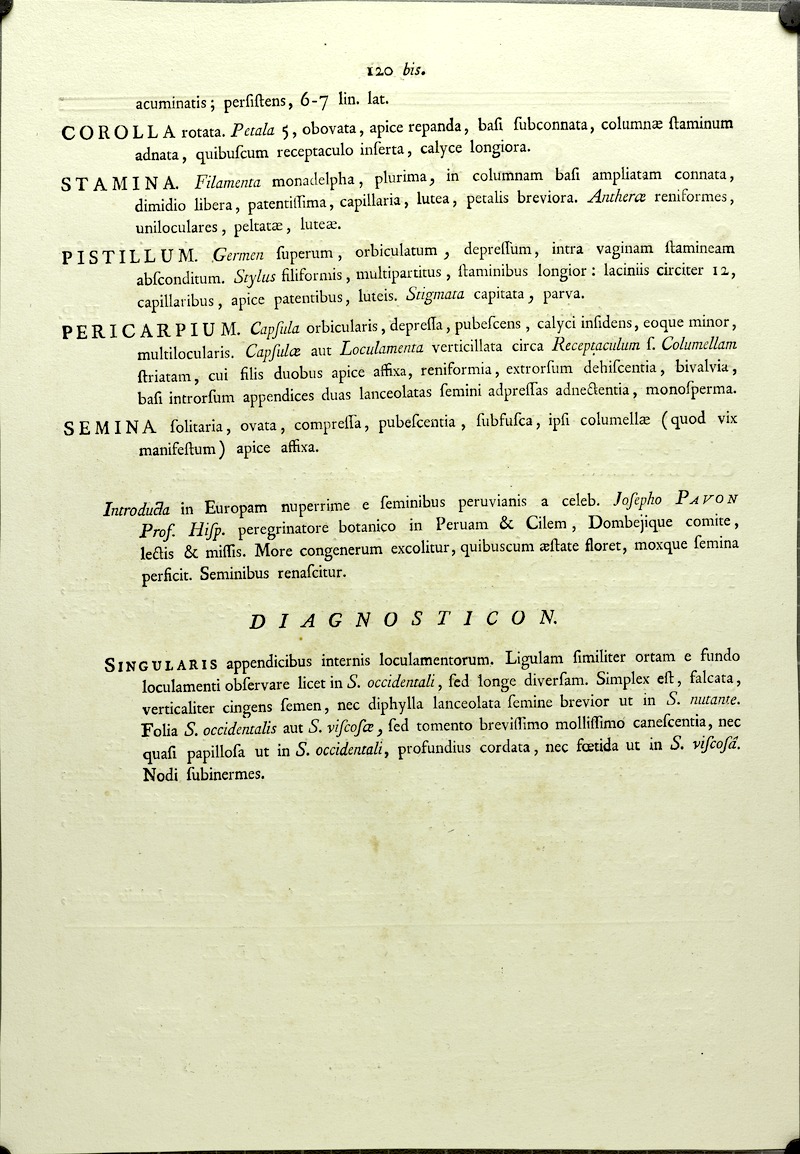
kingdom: Plantae
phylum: Tracheophyta
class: Magnoliopsida
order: Malvales
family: Malvaceae
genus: Gaya
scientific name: Gaya calyptrata
